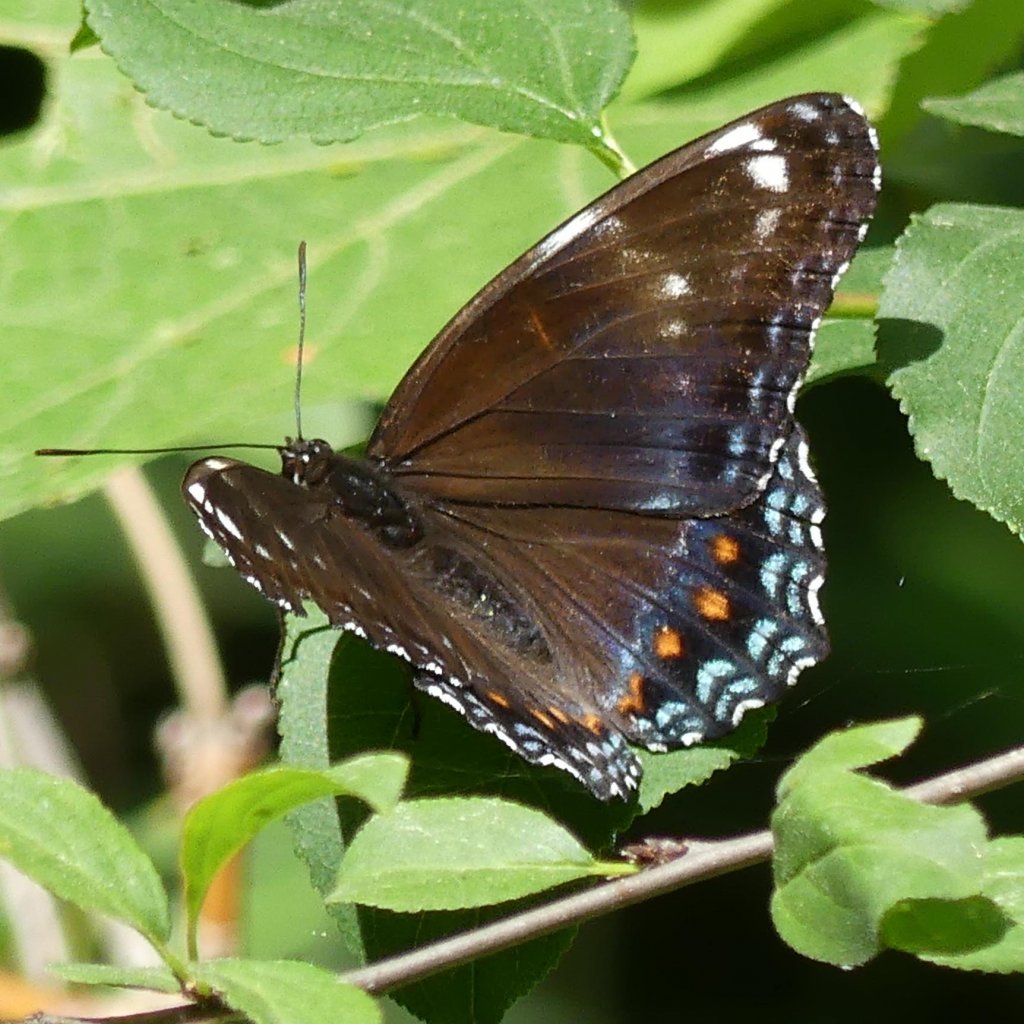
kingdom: Animalia
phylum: Arthropoda
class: Insecta
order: Lepidoptera
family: Nymphalidae
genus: Limenitis
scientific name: Limenitis astyanax
